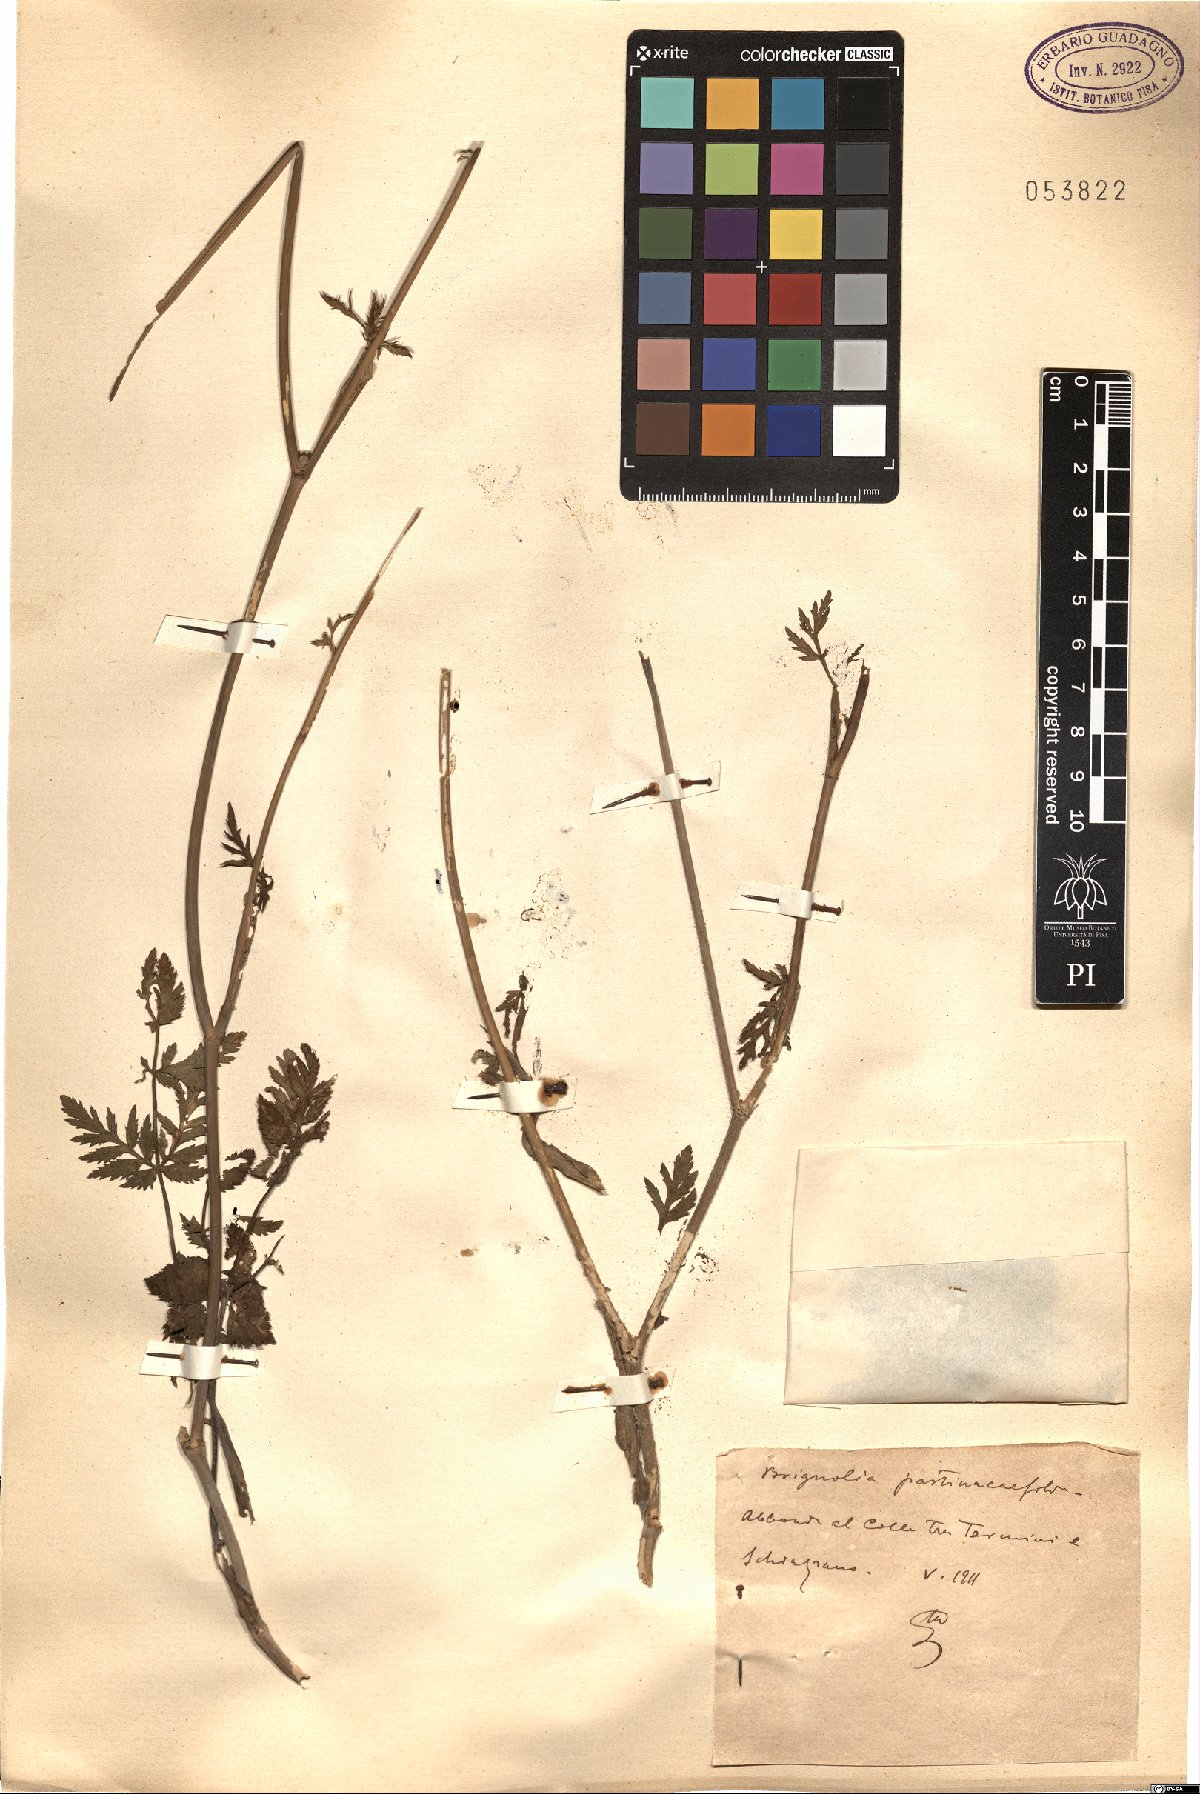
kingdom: Plantae
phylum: Tracheophyta
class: Magnoliopsida
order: Apiales
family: Apiaceae
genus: Kundmannia
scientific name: Kundmannia sicula
